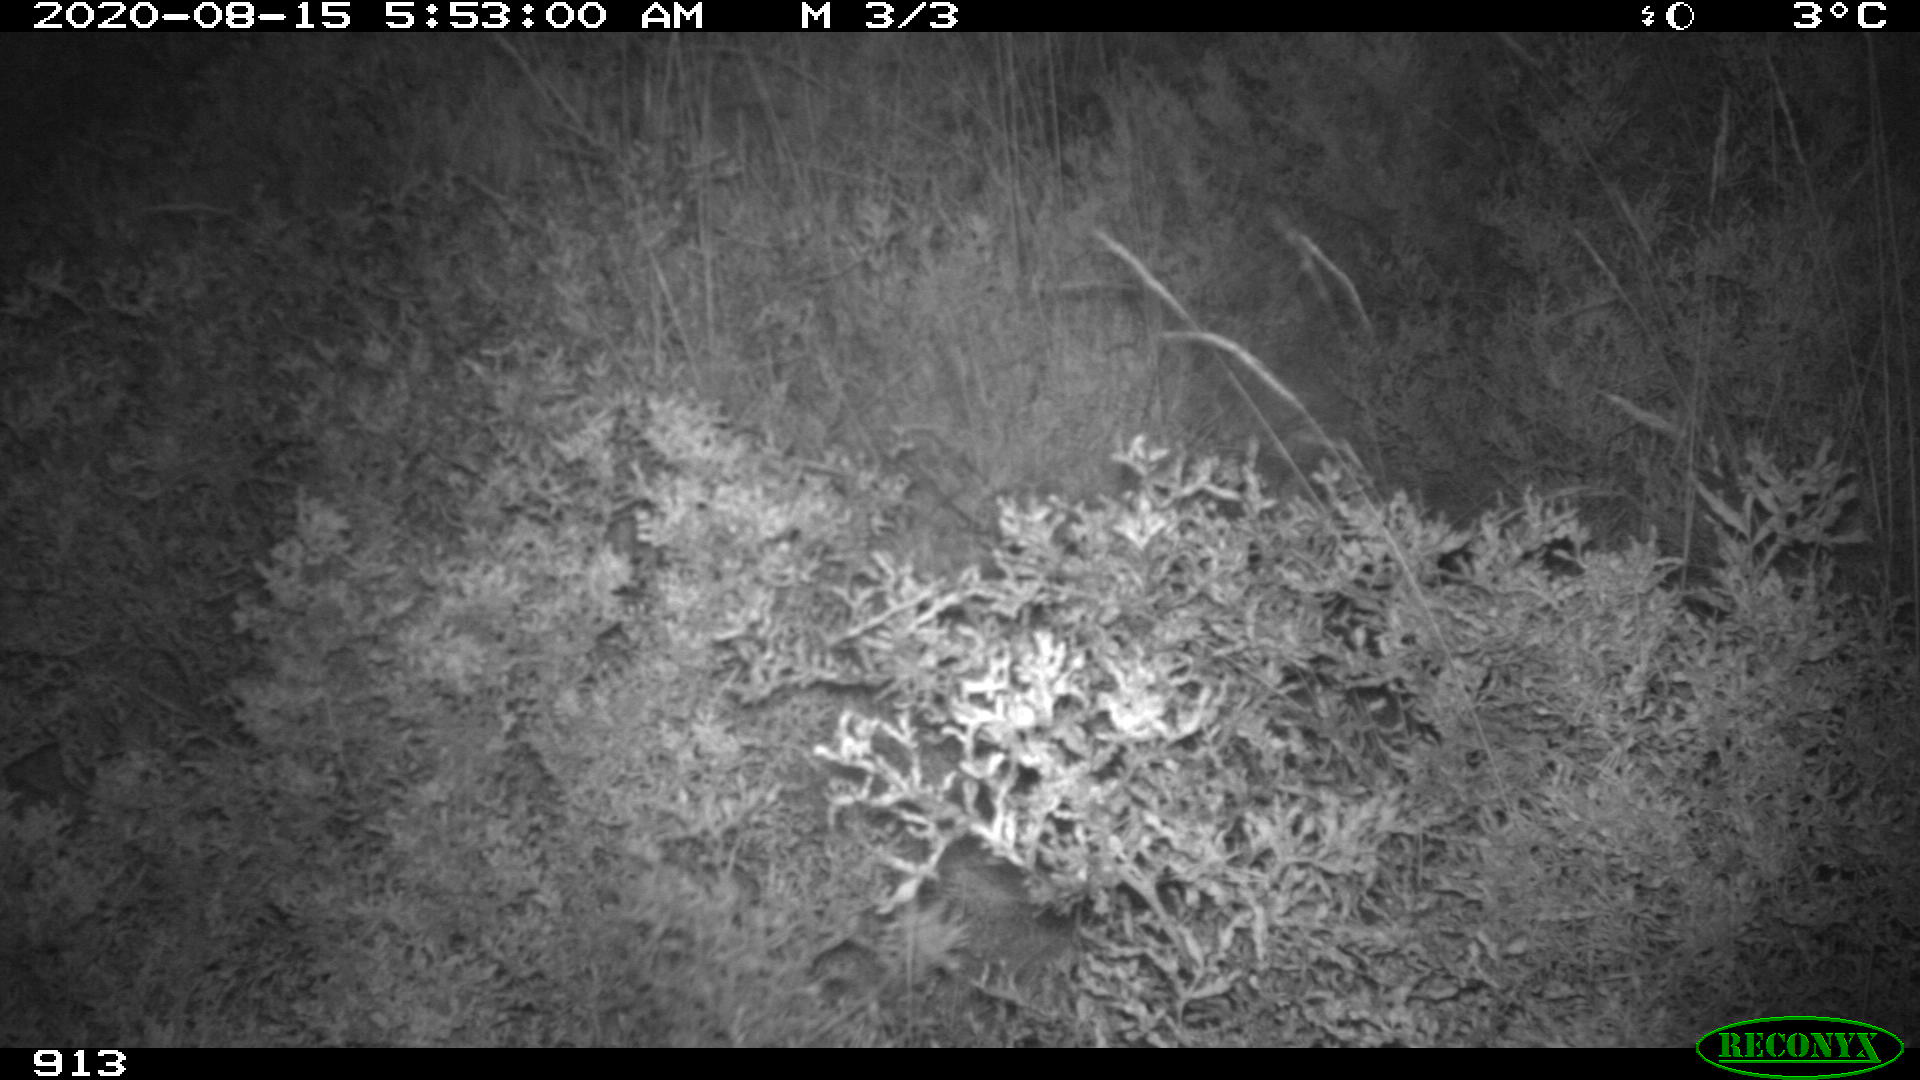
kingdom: Animalia
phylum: Chordata
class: Mammalia
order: Artiodactyla
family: Cervidae
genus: Capreolus
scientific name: Capreolus capreolus
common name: Western roe deer
